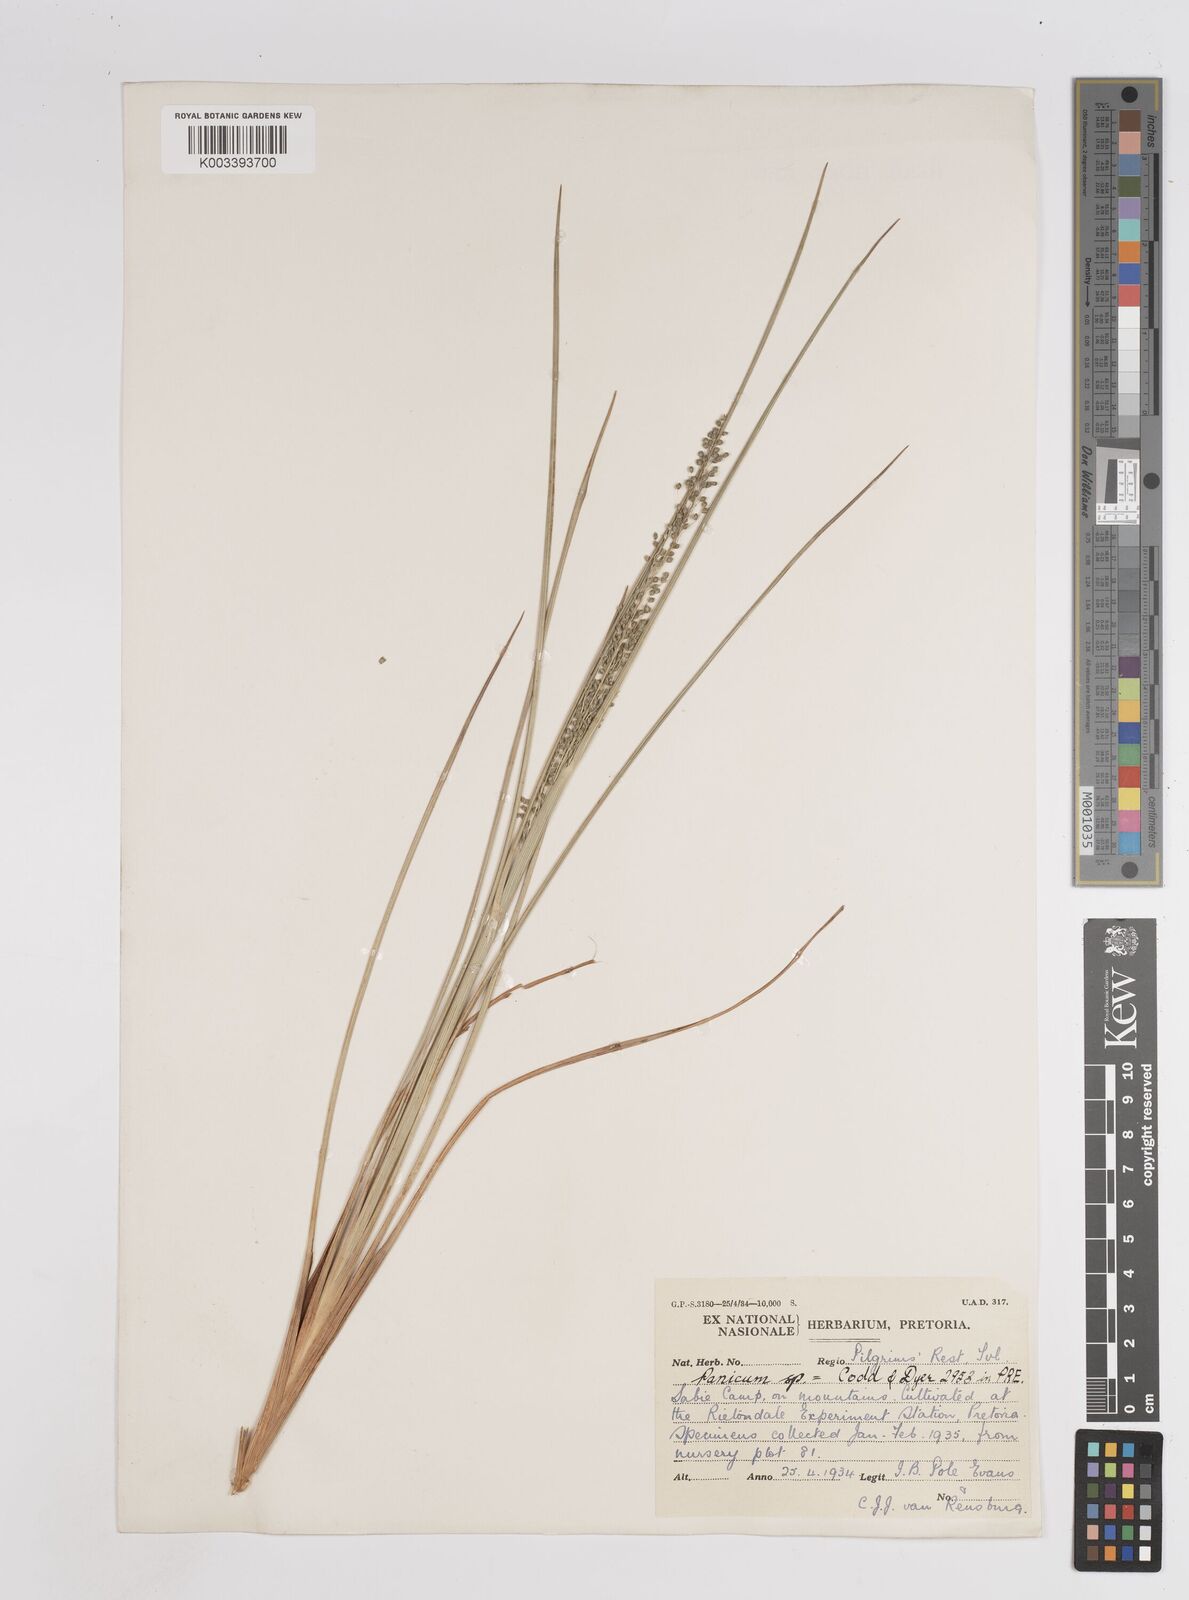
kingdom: Plantae
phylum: Tracheophyta
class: Liliopsida
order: Poales
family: Poaceae
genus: Trichanthecium
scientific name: Trichanthecium natalense
